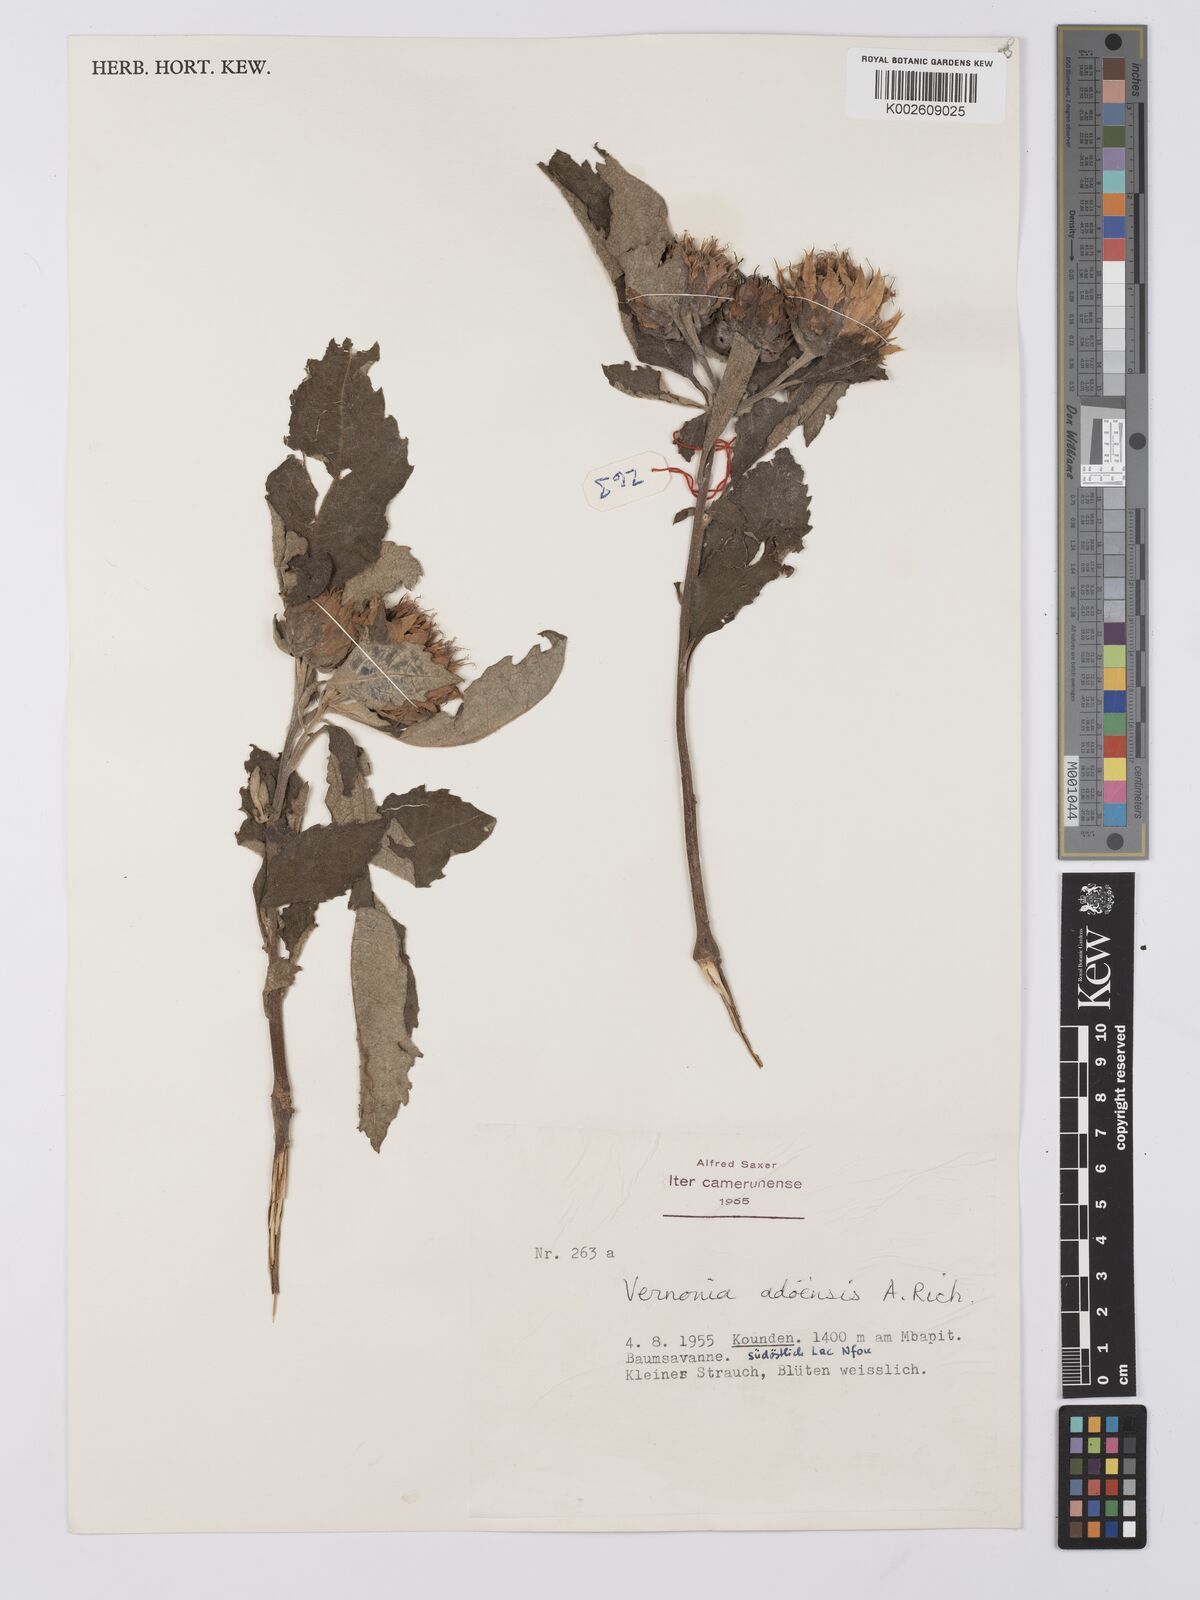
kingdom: Plantae
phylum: Tracheophyta
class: Magnoliopsida
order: Asterales
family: Asteraceae
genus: Baccharoides
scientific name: Baccharoides adoensis
